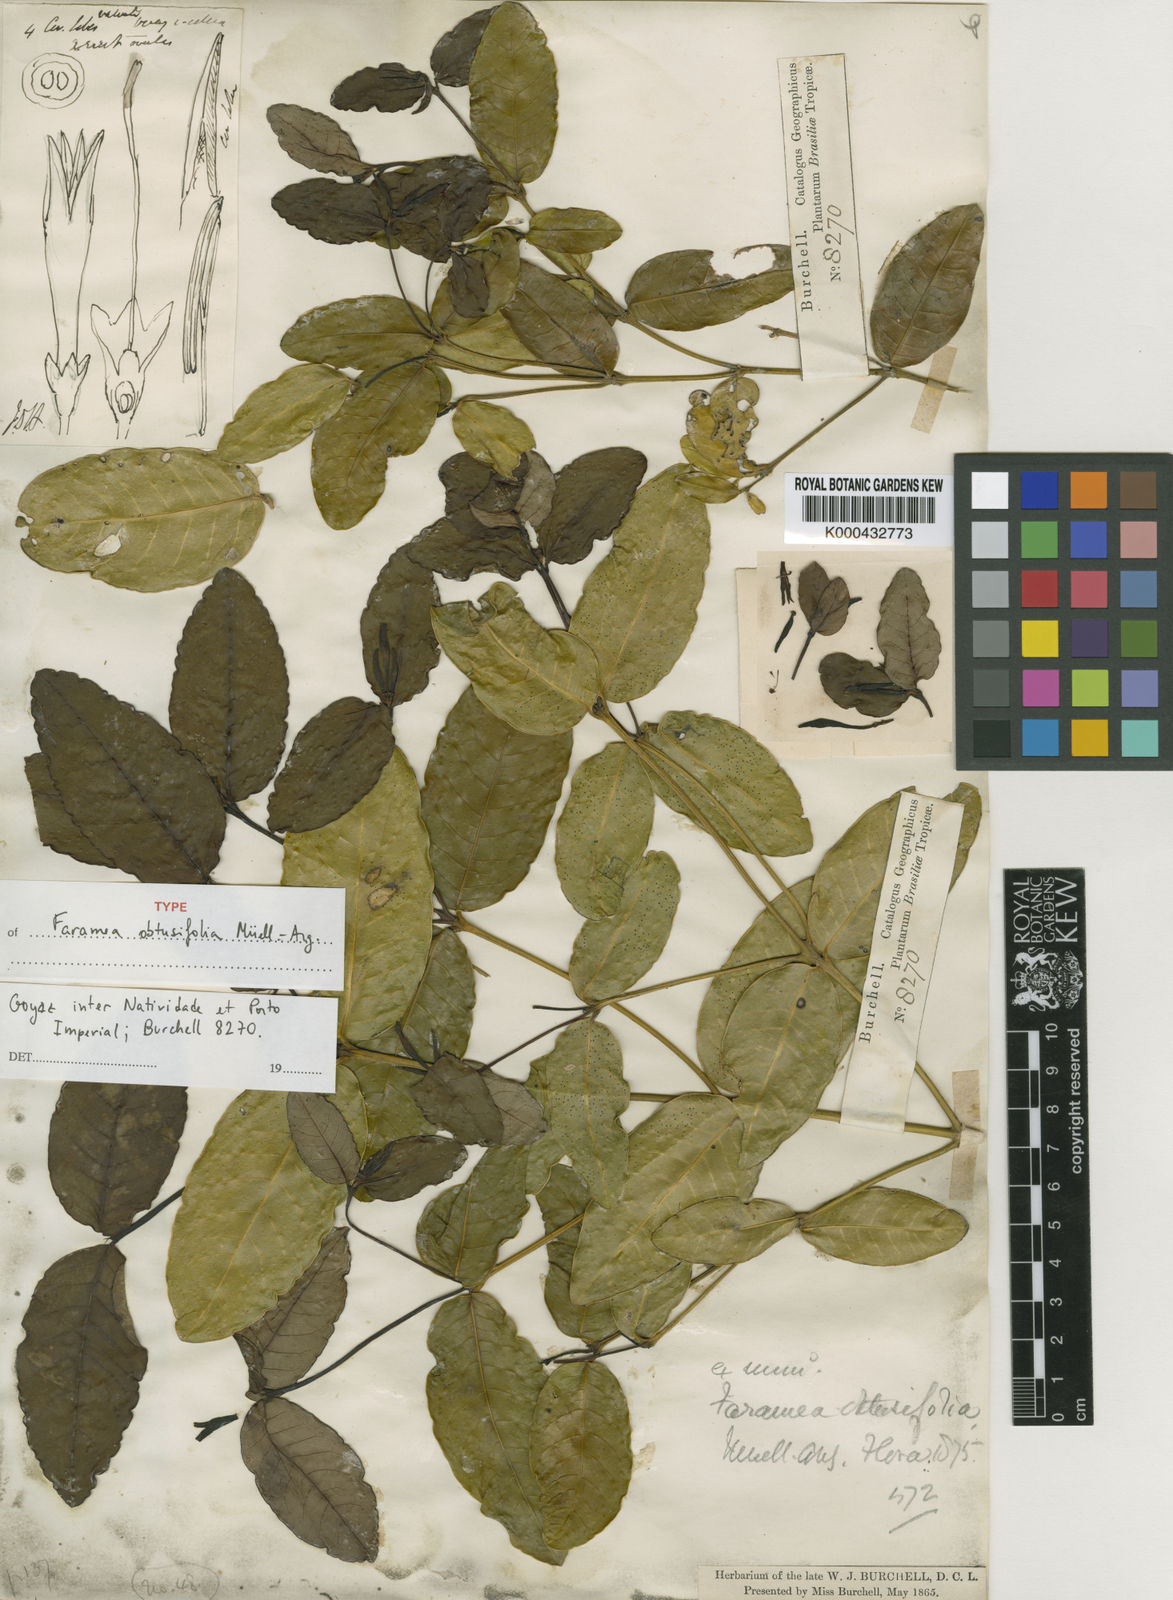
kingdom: Plantae
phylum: Tracheophyta
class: Magnoliopsida
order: Gentianales
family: Rubiaceae
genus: Faramea
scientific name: Faramea
